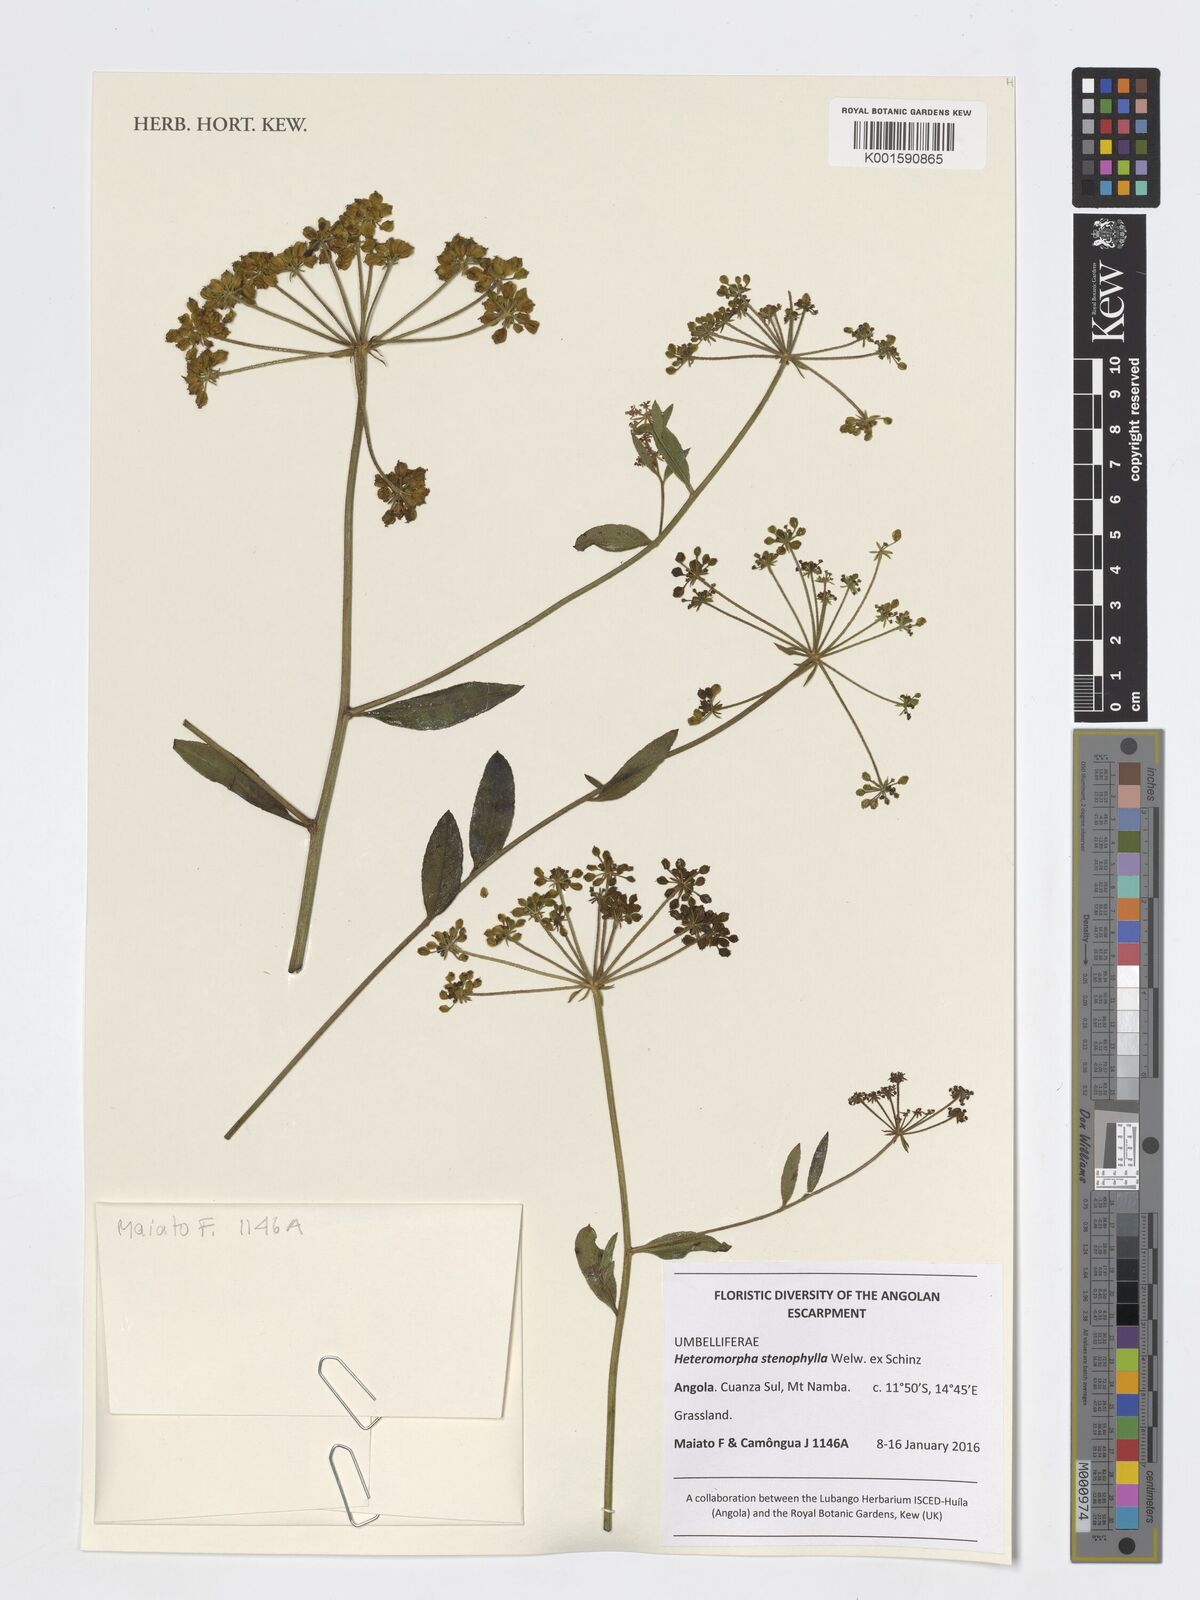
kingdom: Plantae
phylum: Tracheophyta
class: Magnoliopsida
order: Apiales
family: Apiaceae
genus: Heteromorpha
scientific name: Heteromorpha stenophylla
